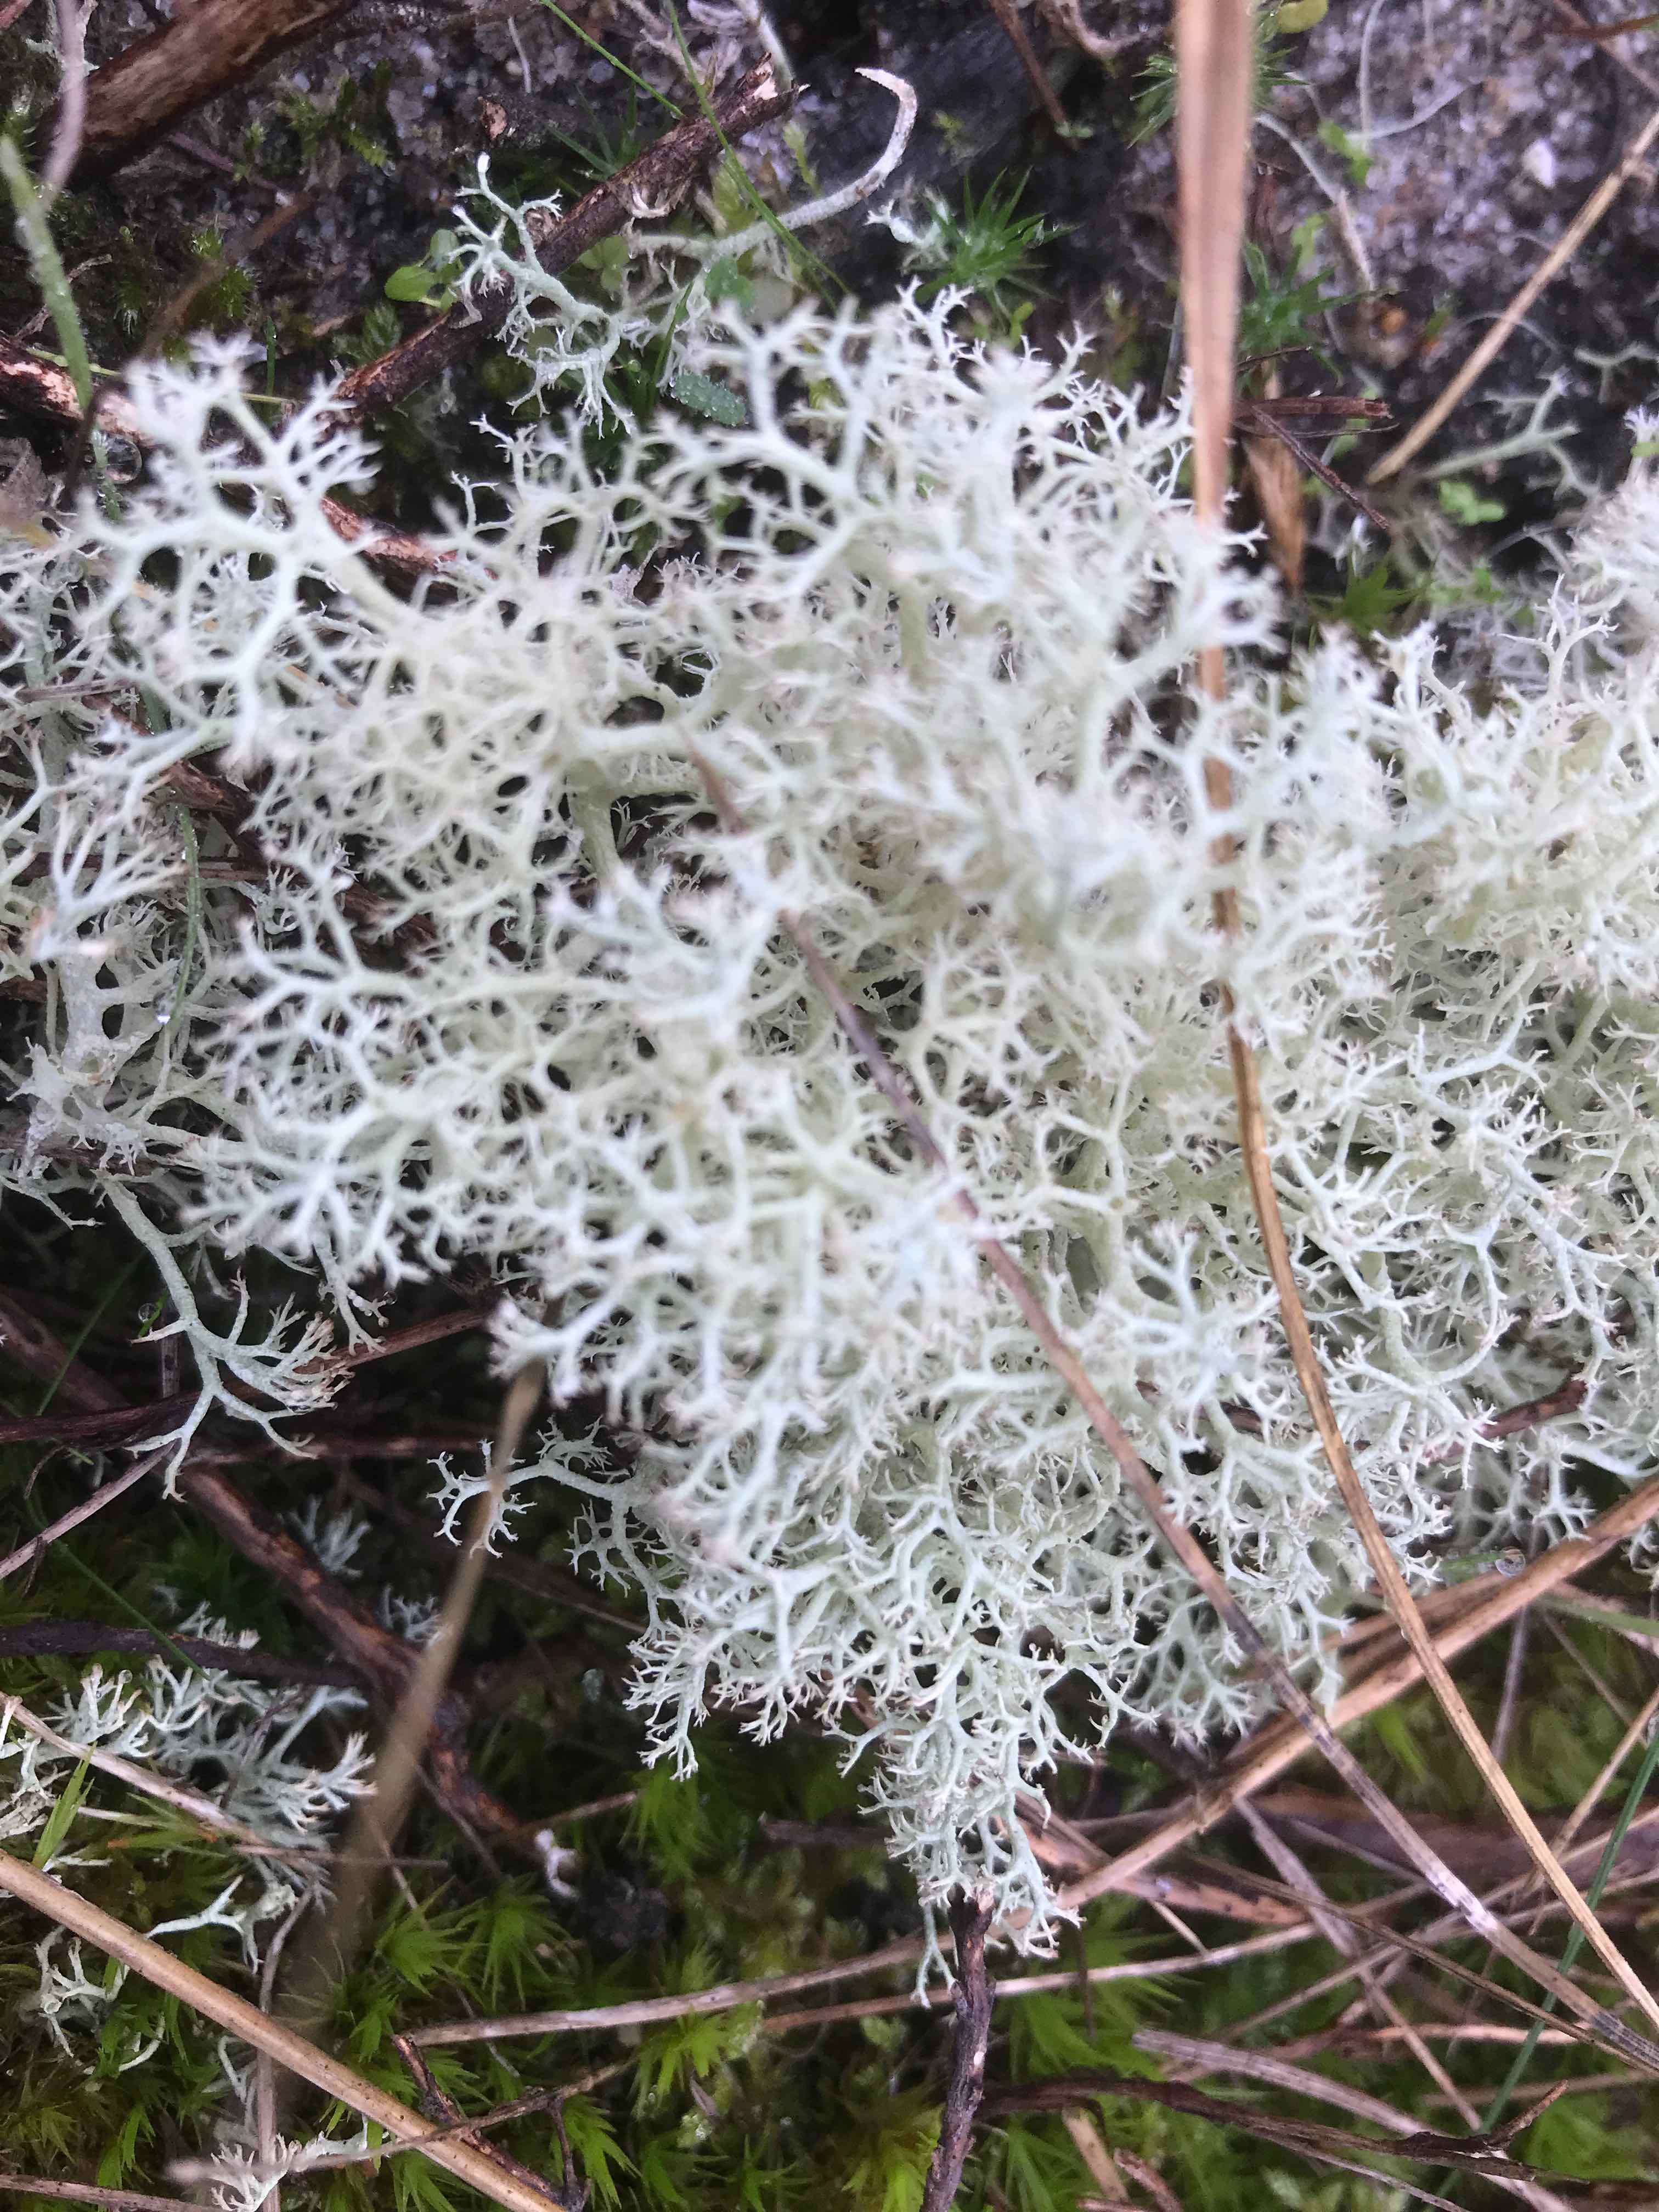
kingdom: Fungi
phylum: Ascomycota
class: Lecanoromycetes
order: Lecanorales
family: Cladoniaceae
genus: Cladonia
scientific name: Cladonia portentosa
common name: hede-rensdyrlav
